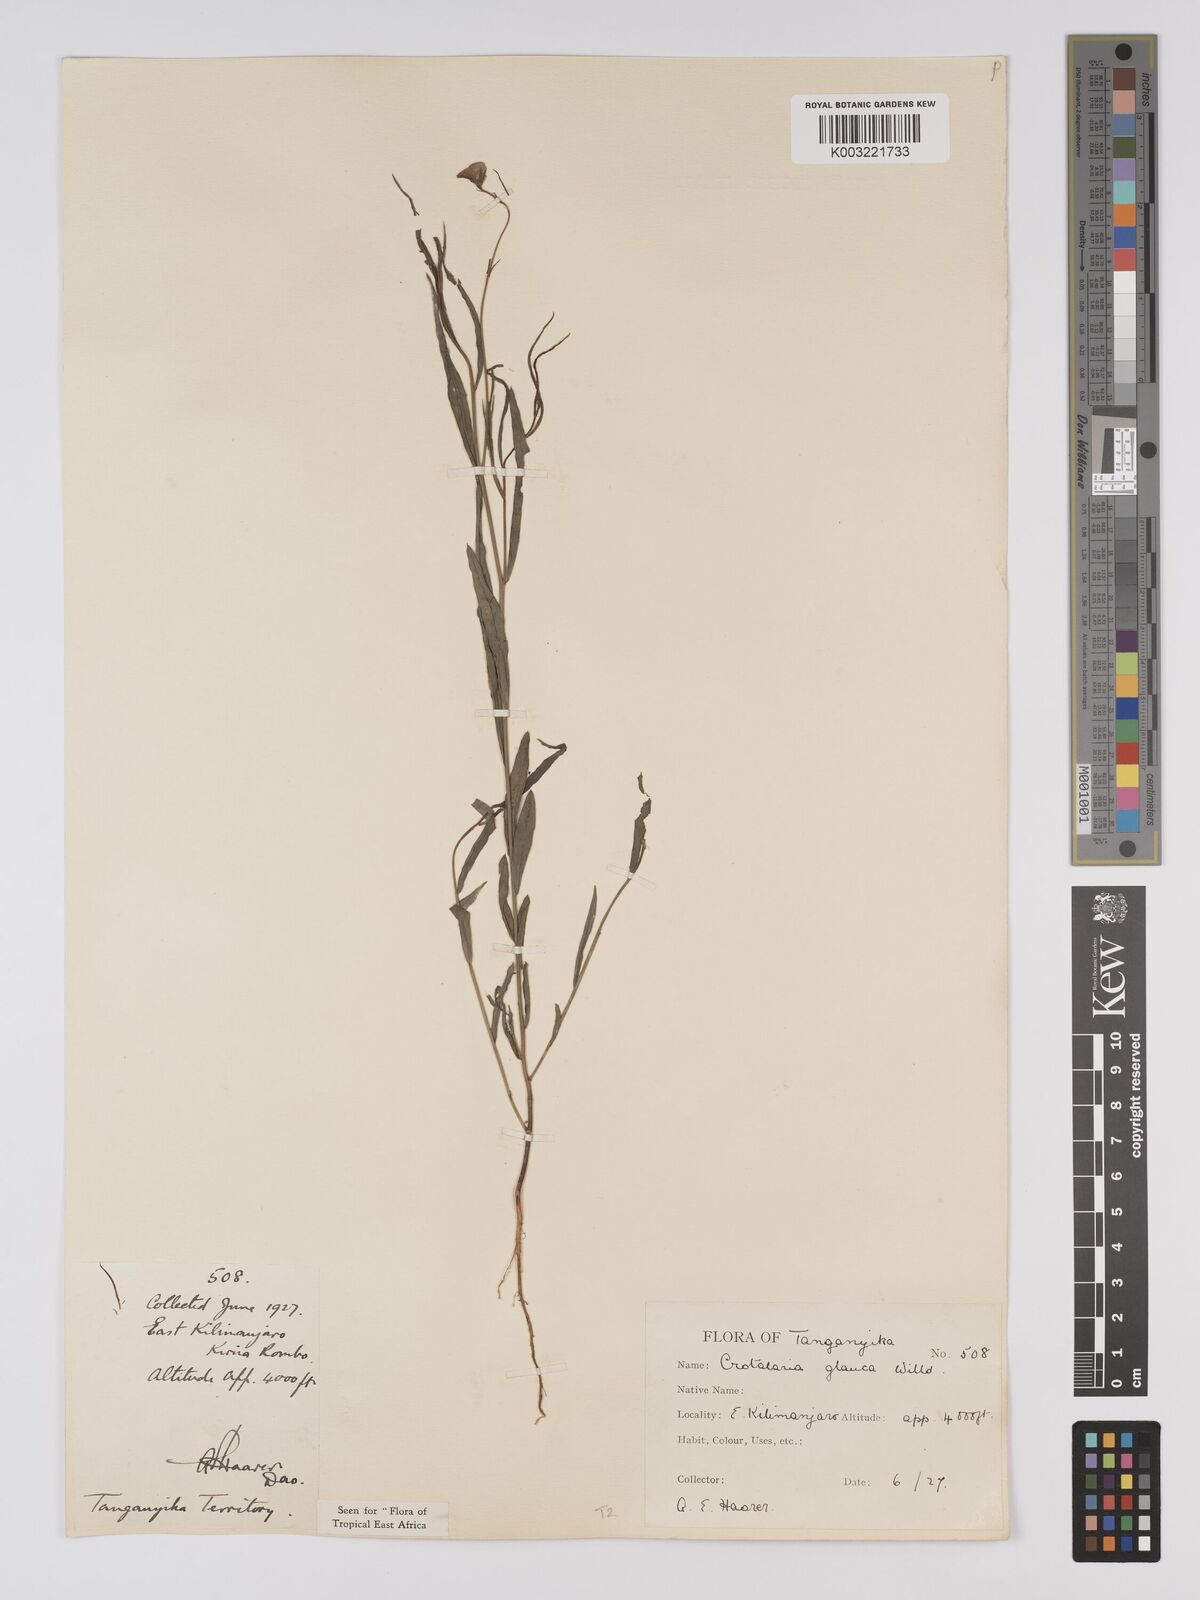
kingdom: Plantae
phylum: Tracheophyta
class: Magnoliopsida
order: Fabales
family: Fabaceae
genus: Crotalaria
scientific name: Crotalaria glauca
